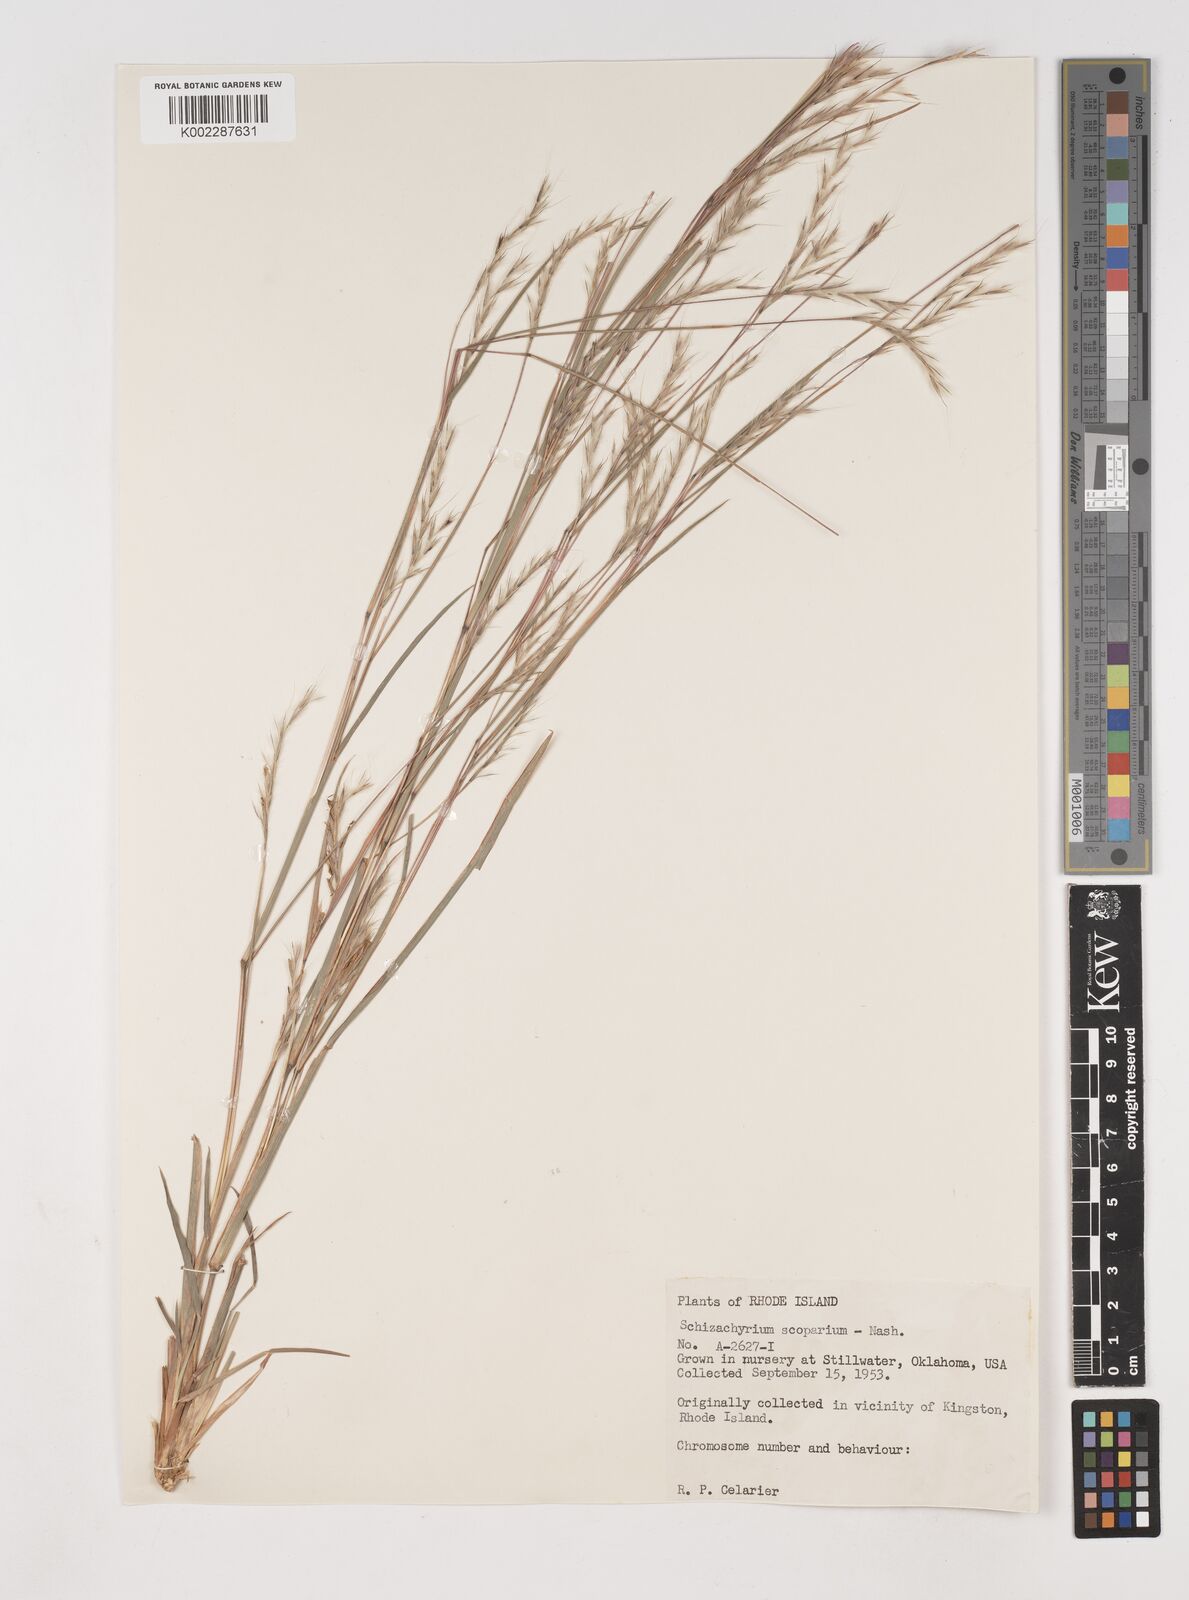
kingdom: Plantae
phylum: Tracheophyta
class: Liliopsida
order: Poales
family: Poaceae
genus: Schizachyrium
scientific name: Schizachyrium scoparium
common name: Little bluestem
